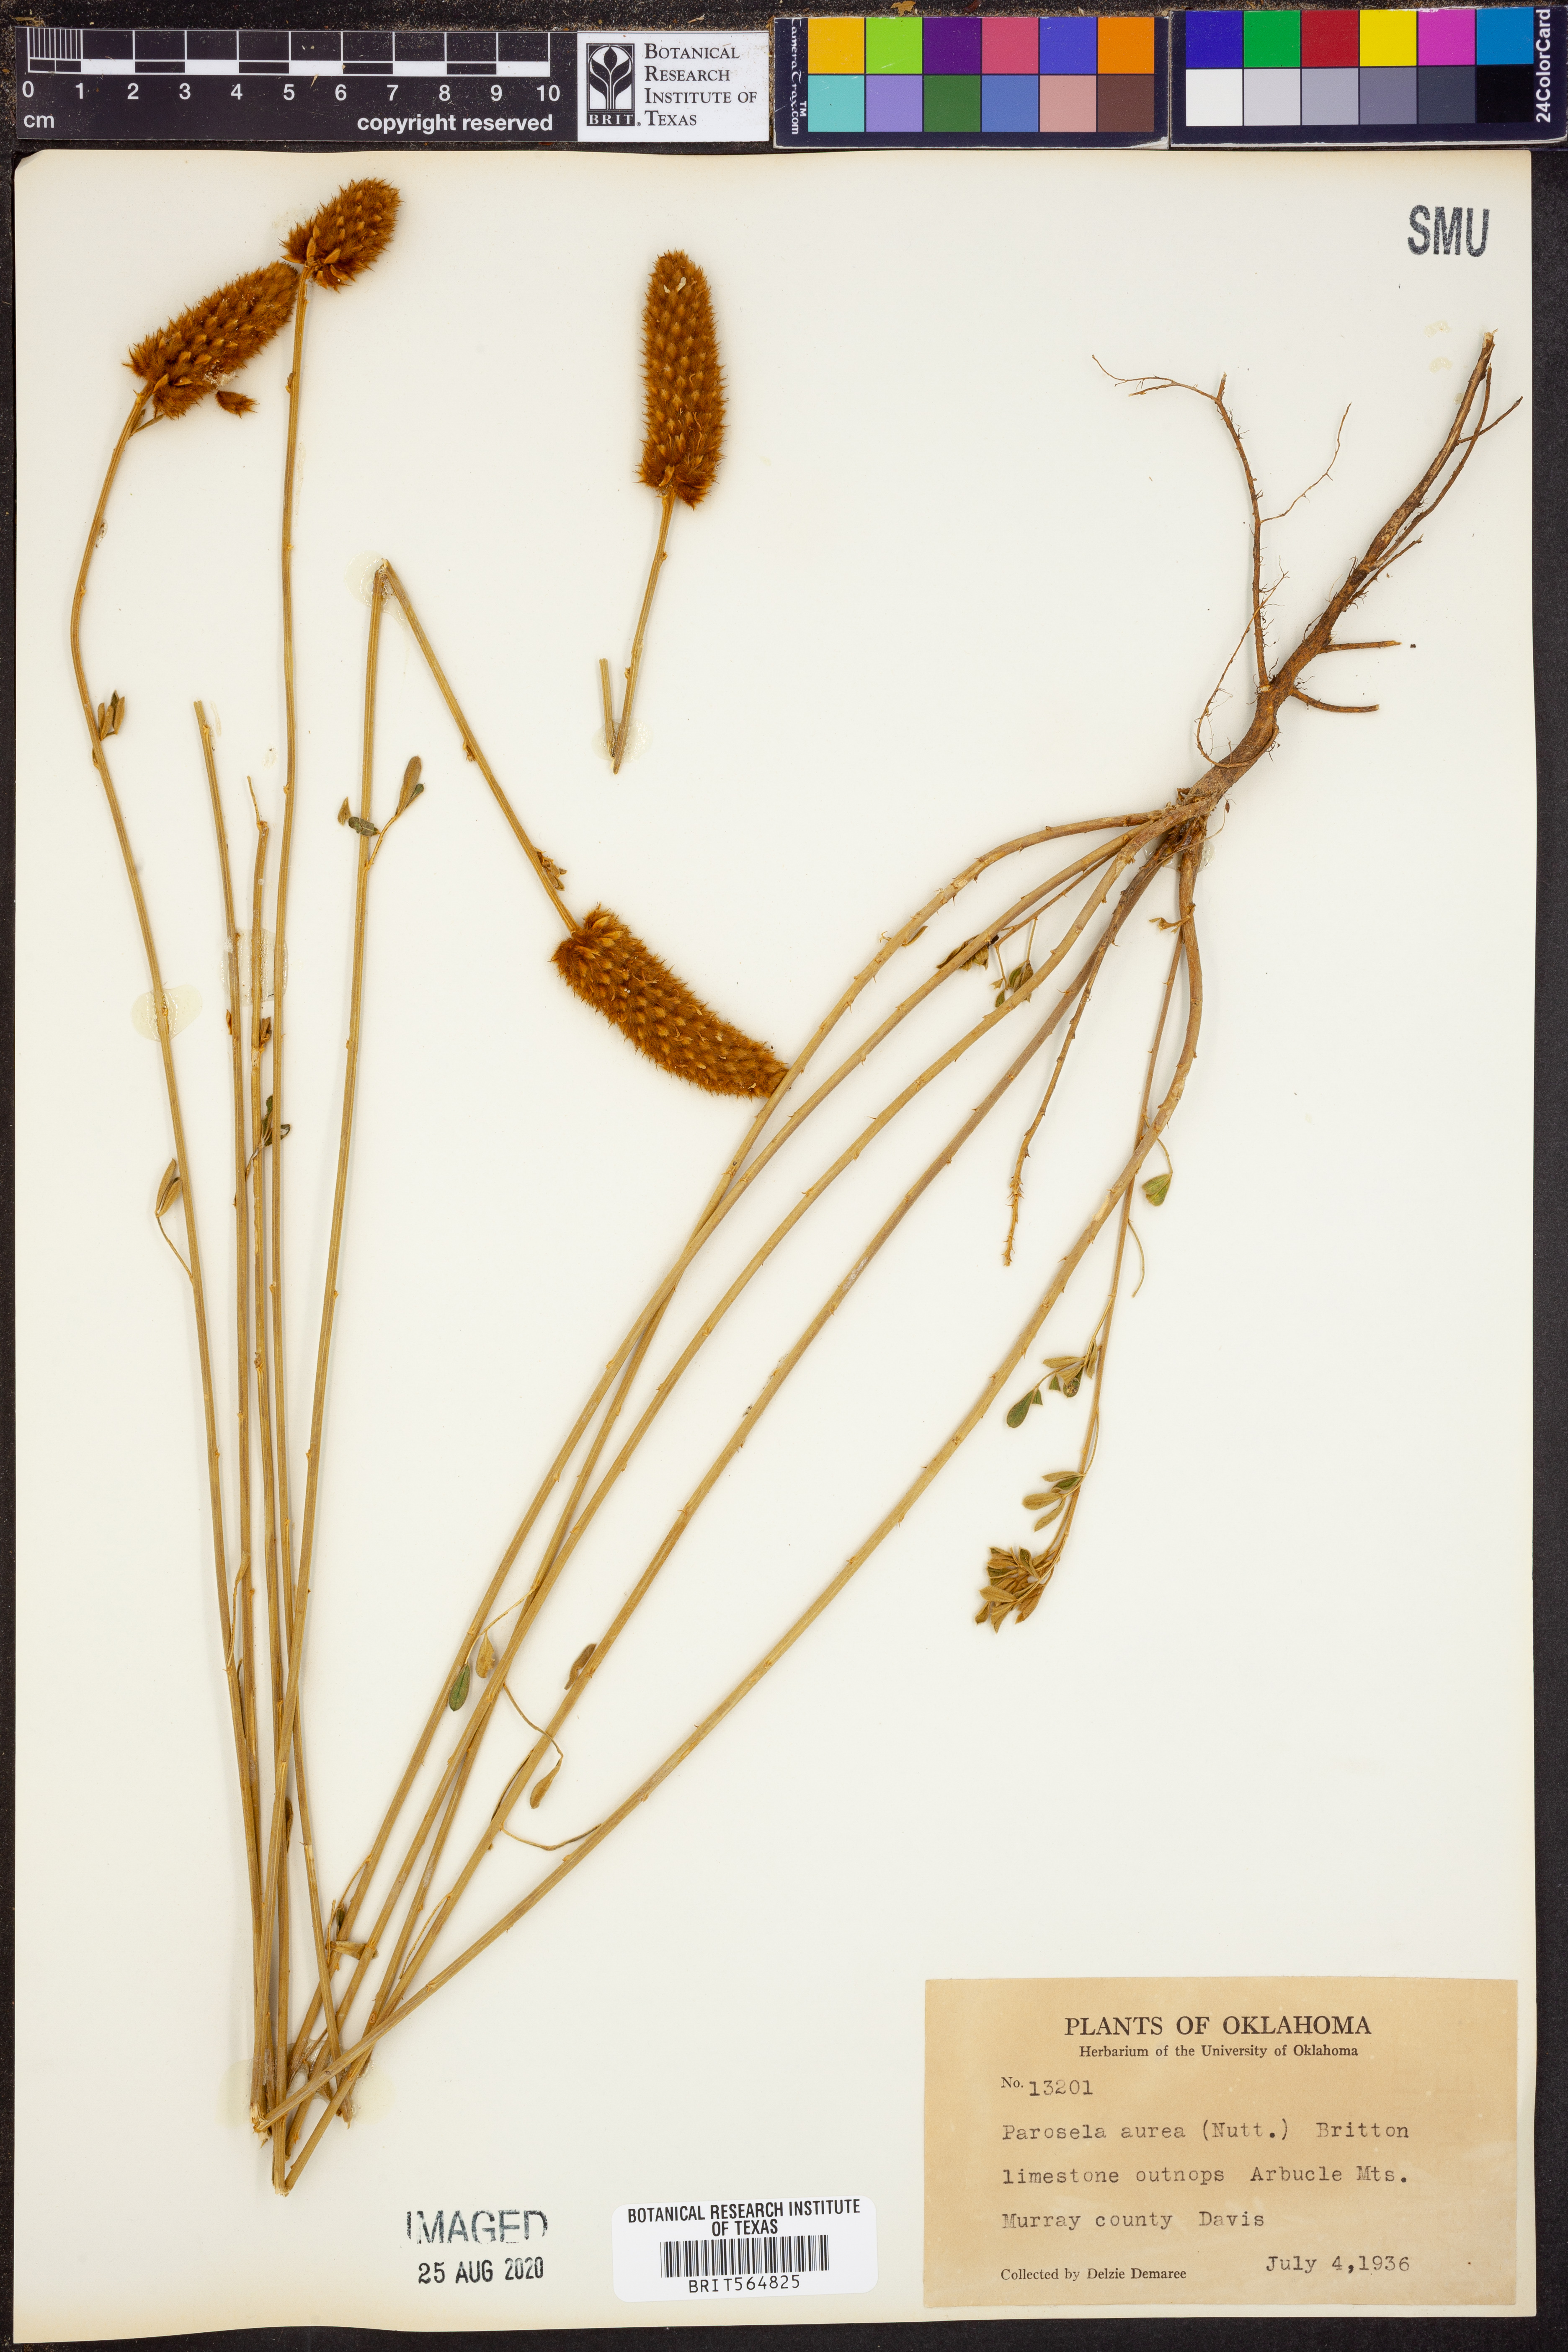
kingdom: Plantae
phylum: Tracheophyta
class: Magnoliopsida
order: Fabales
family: Fabaceae
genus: Dalea
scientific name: Dalea aurea
